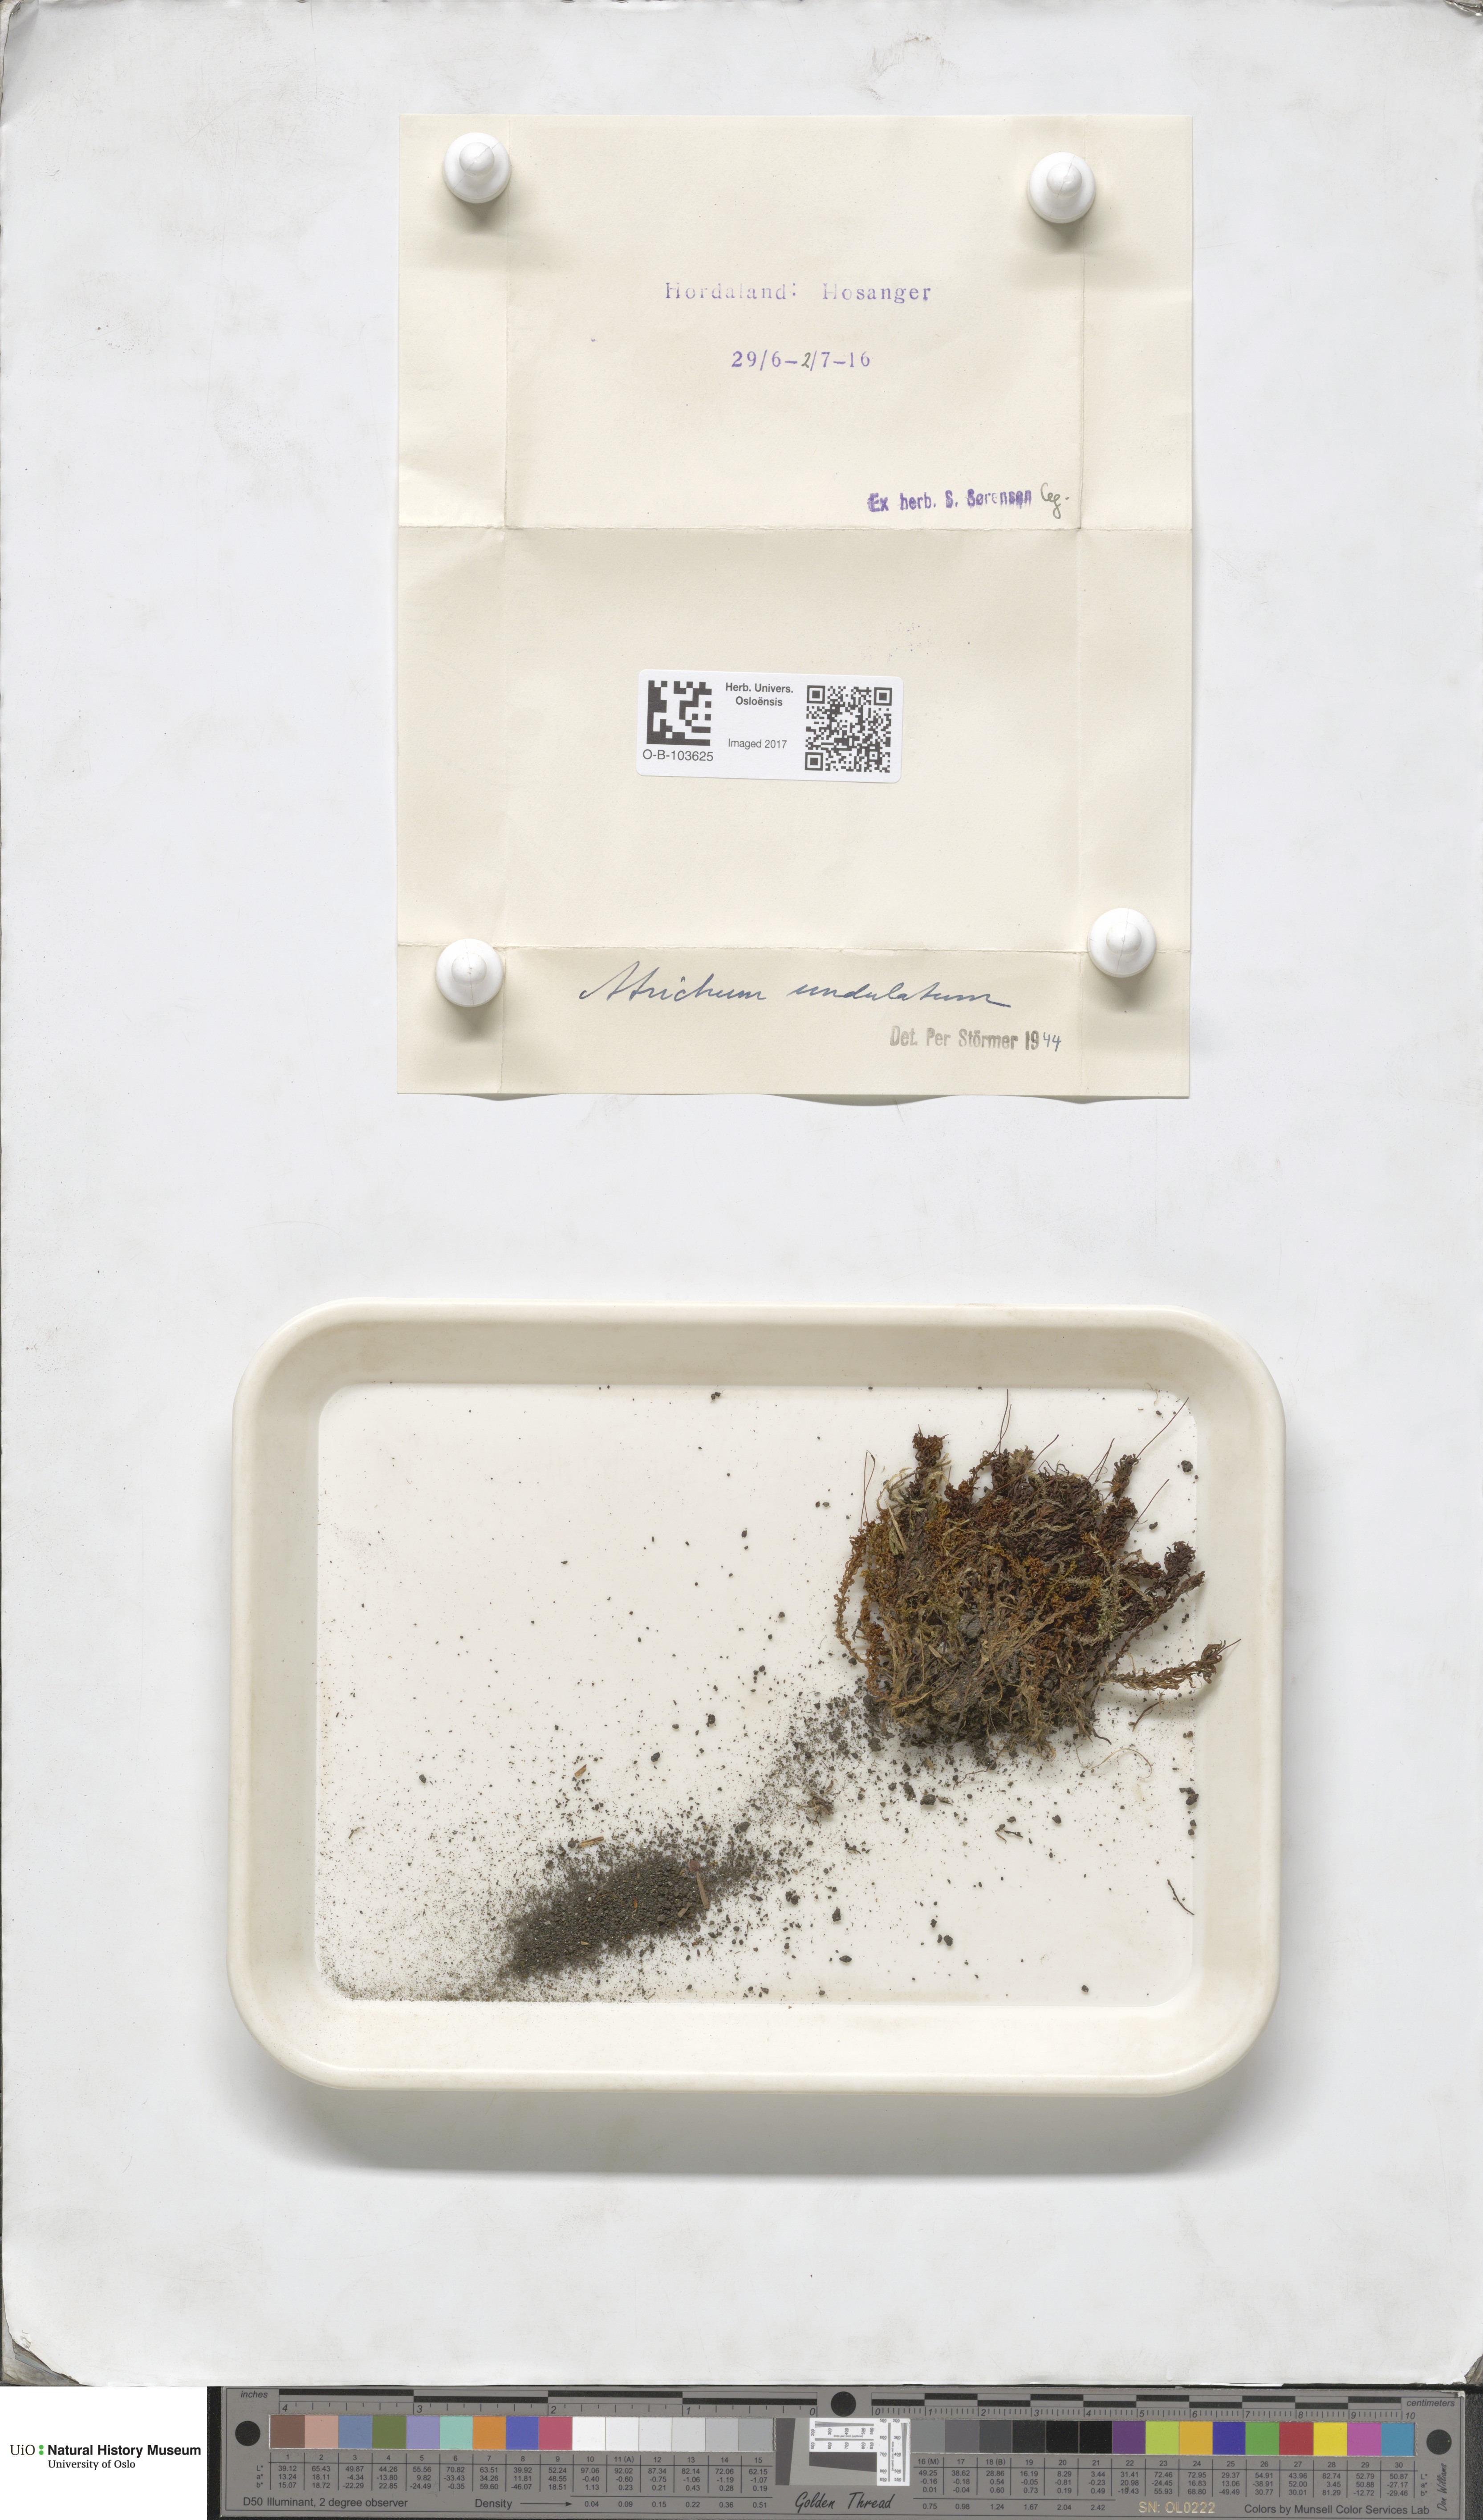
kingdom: Plantae
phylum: Bryophyta
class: Polytrichopsida
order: Polytrichales
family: Polytrichaceae
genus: Atrichum
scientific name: Atrichum undulatum
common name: Common smoothcap
